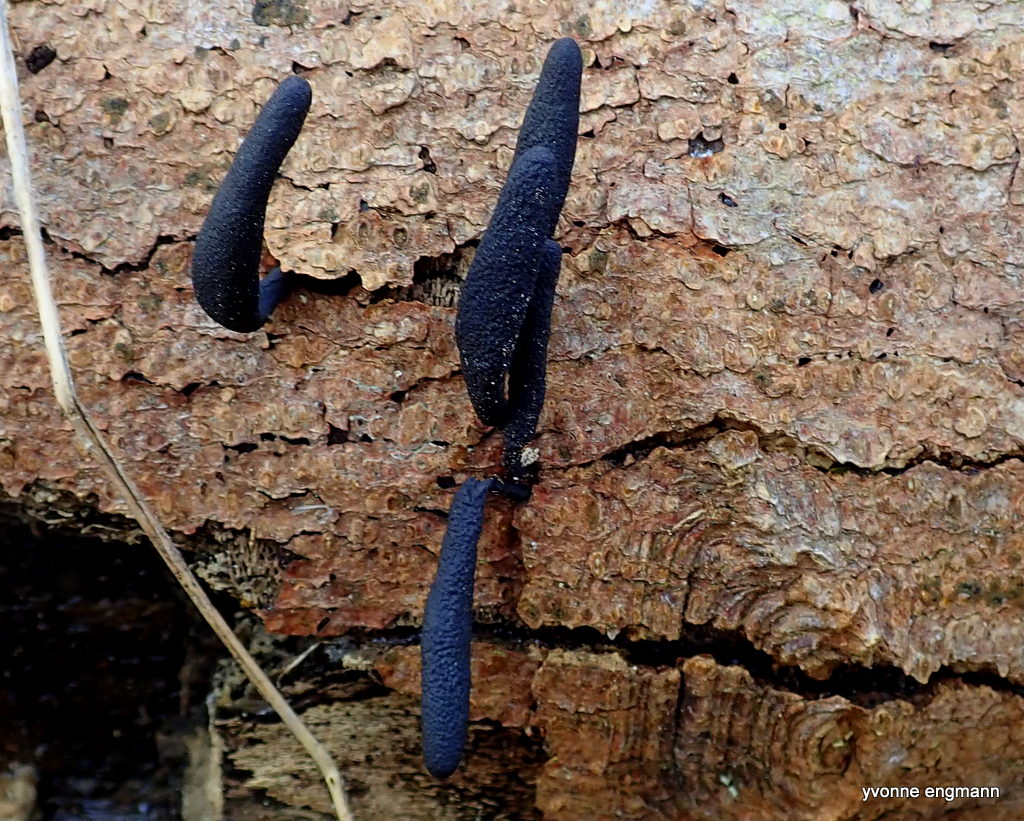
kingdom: Fungi
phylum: Ascomycota
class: Sordariomycetes
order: Xylariales
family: Xylariaceae
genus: Xylaria
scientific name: Xylaria longipes
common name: slank stødsvamp
